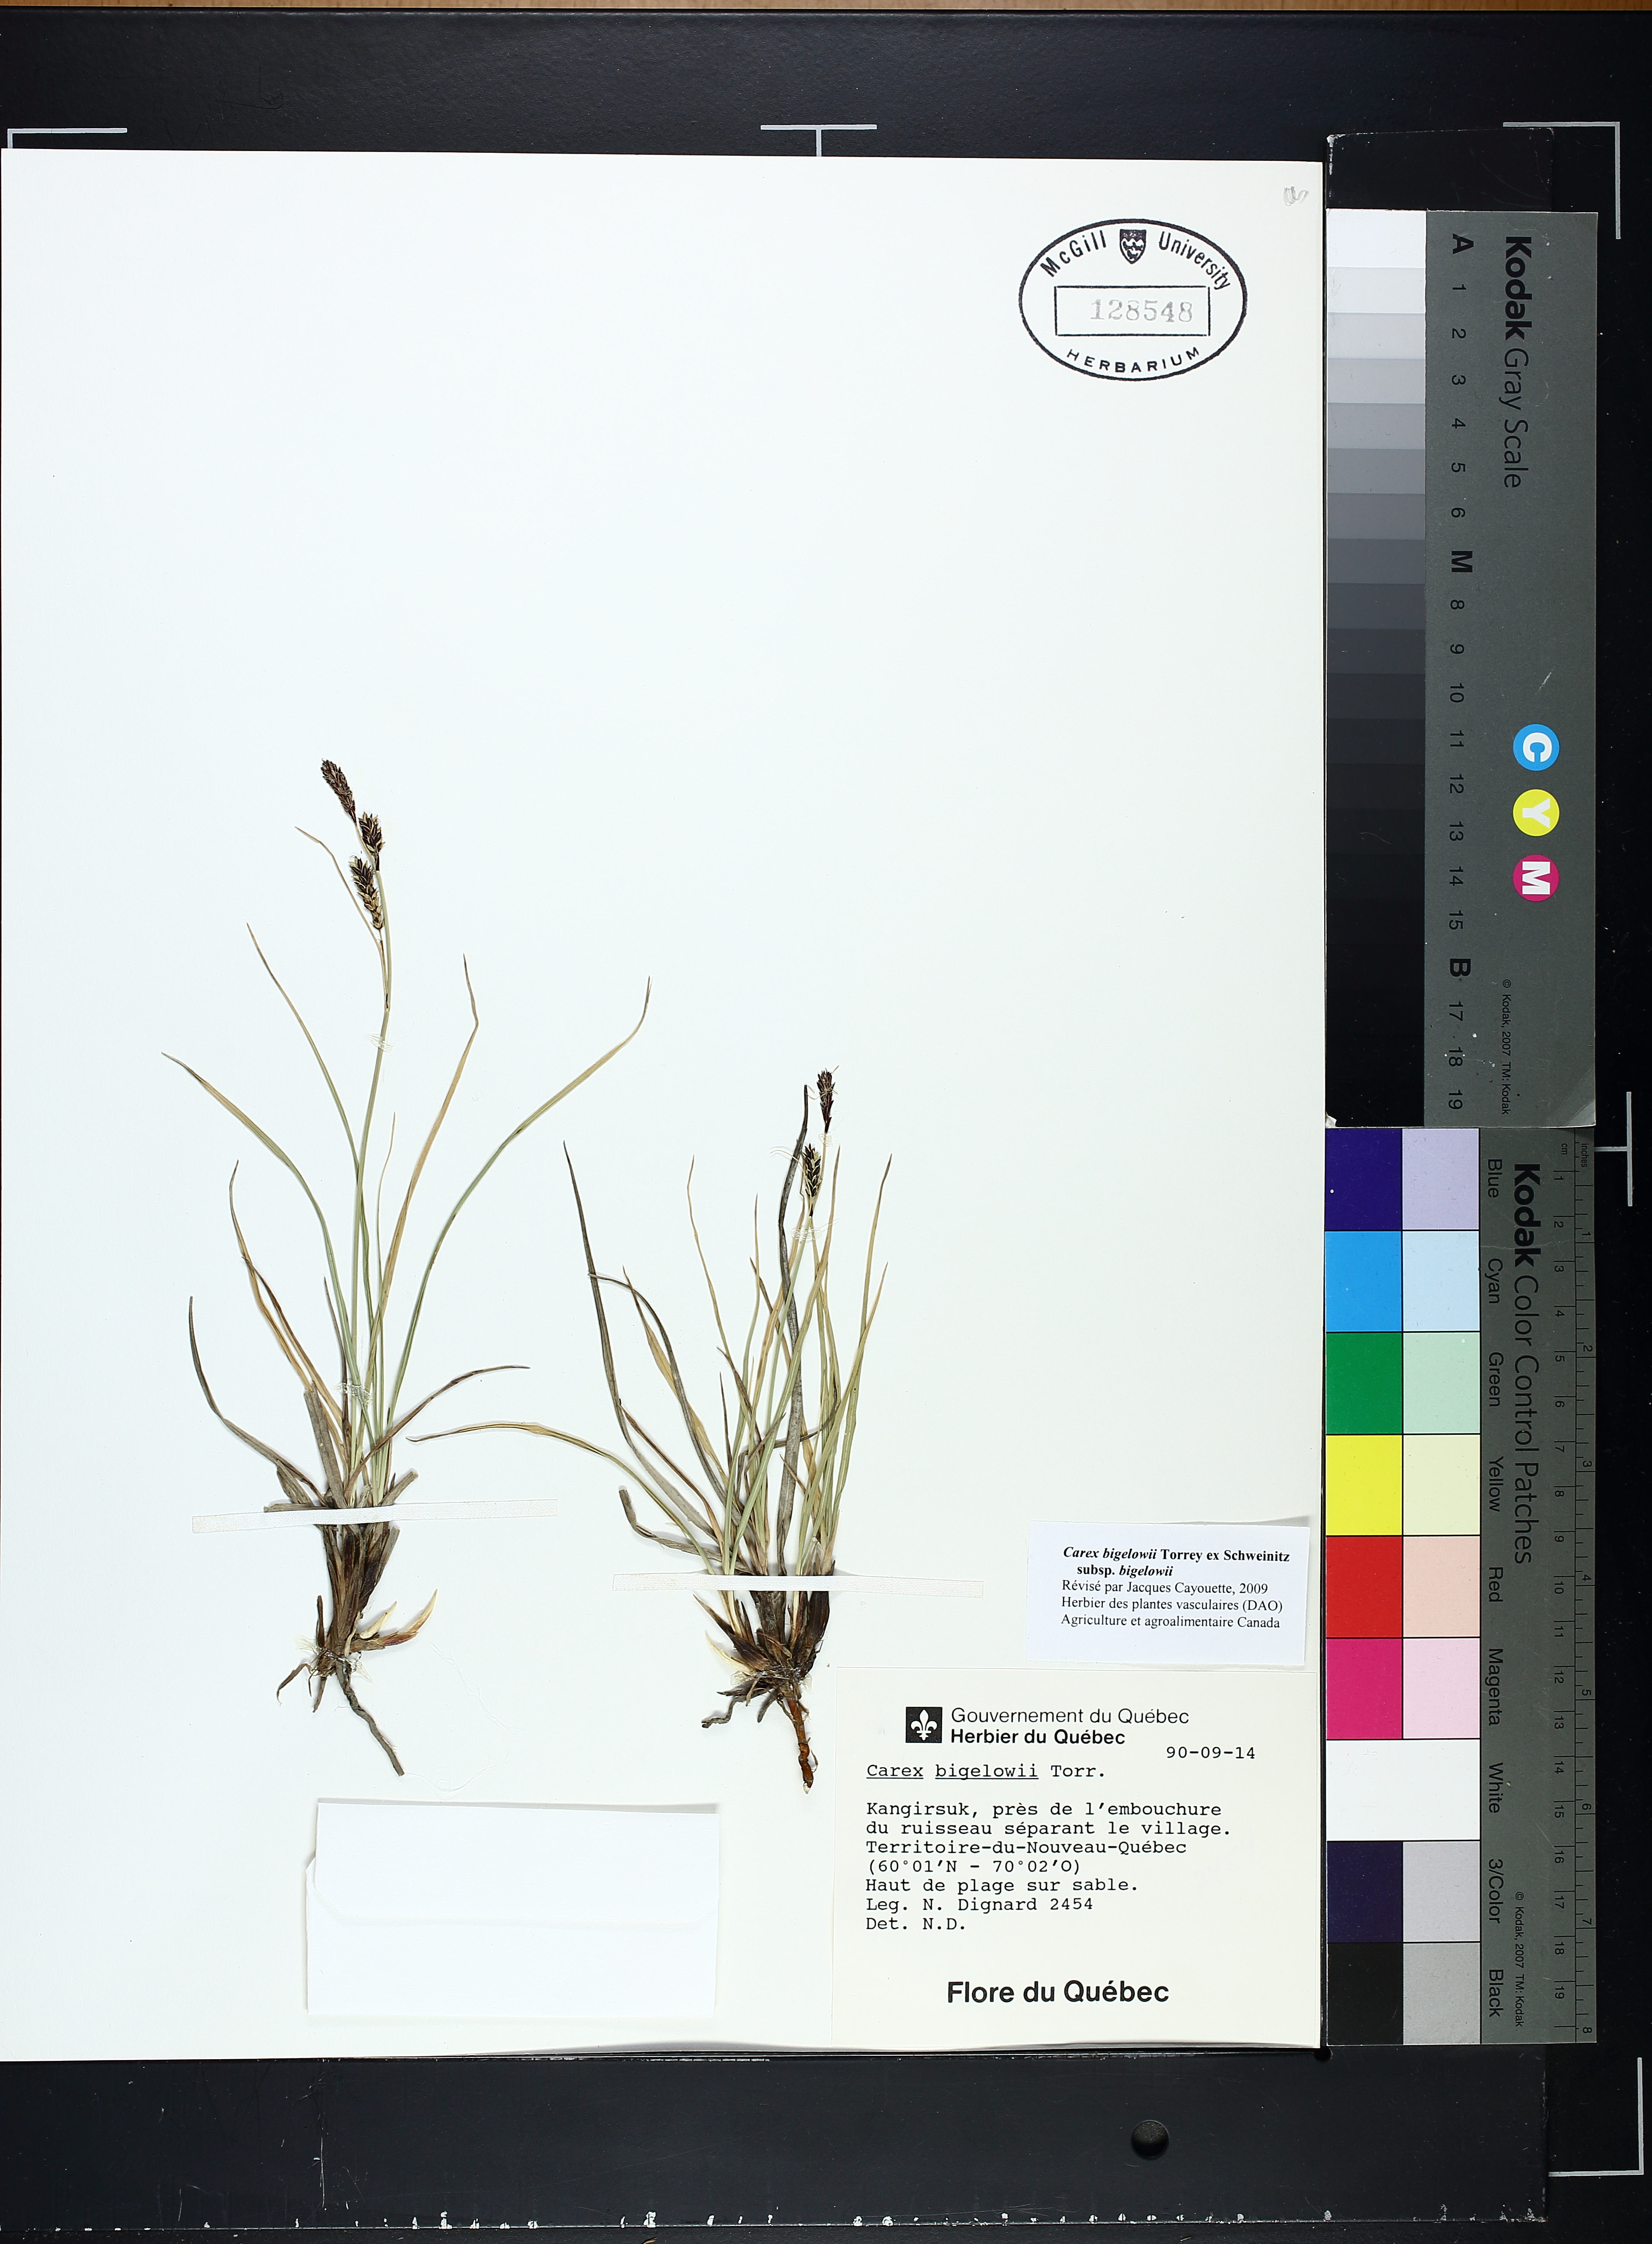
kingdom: Plantae
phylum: Tracheophyta
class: Liliopsida
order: Poales
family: Cyperaceae
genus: Carex
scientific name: Carex bigelowii
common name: Stiff sedge
